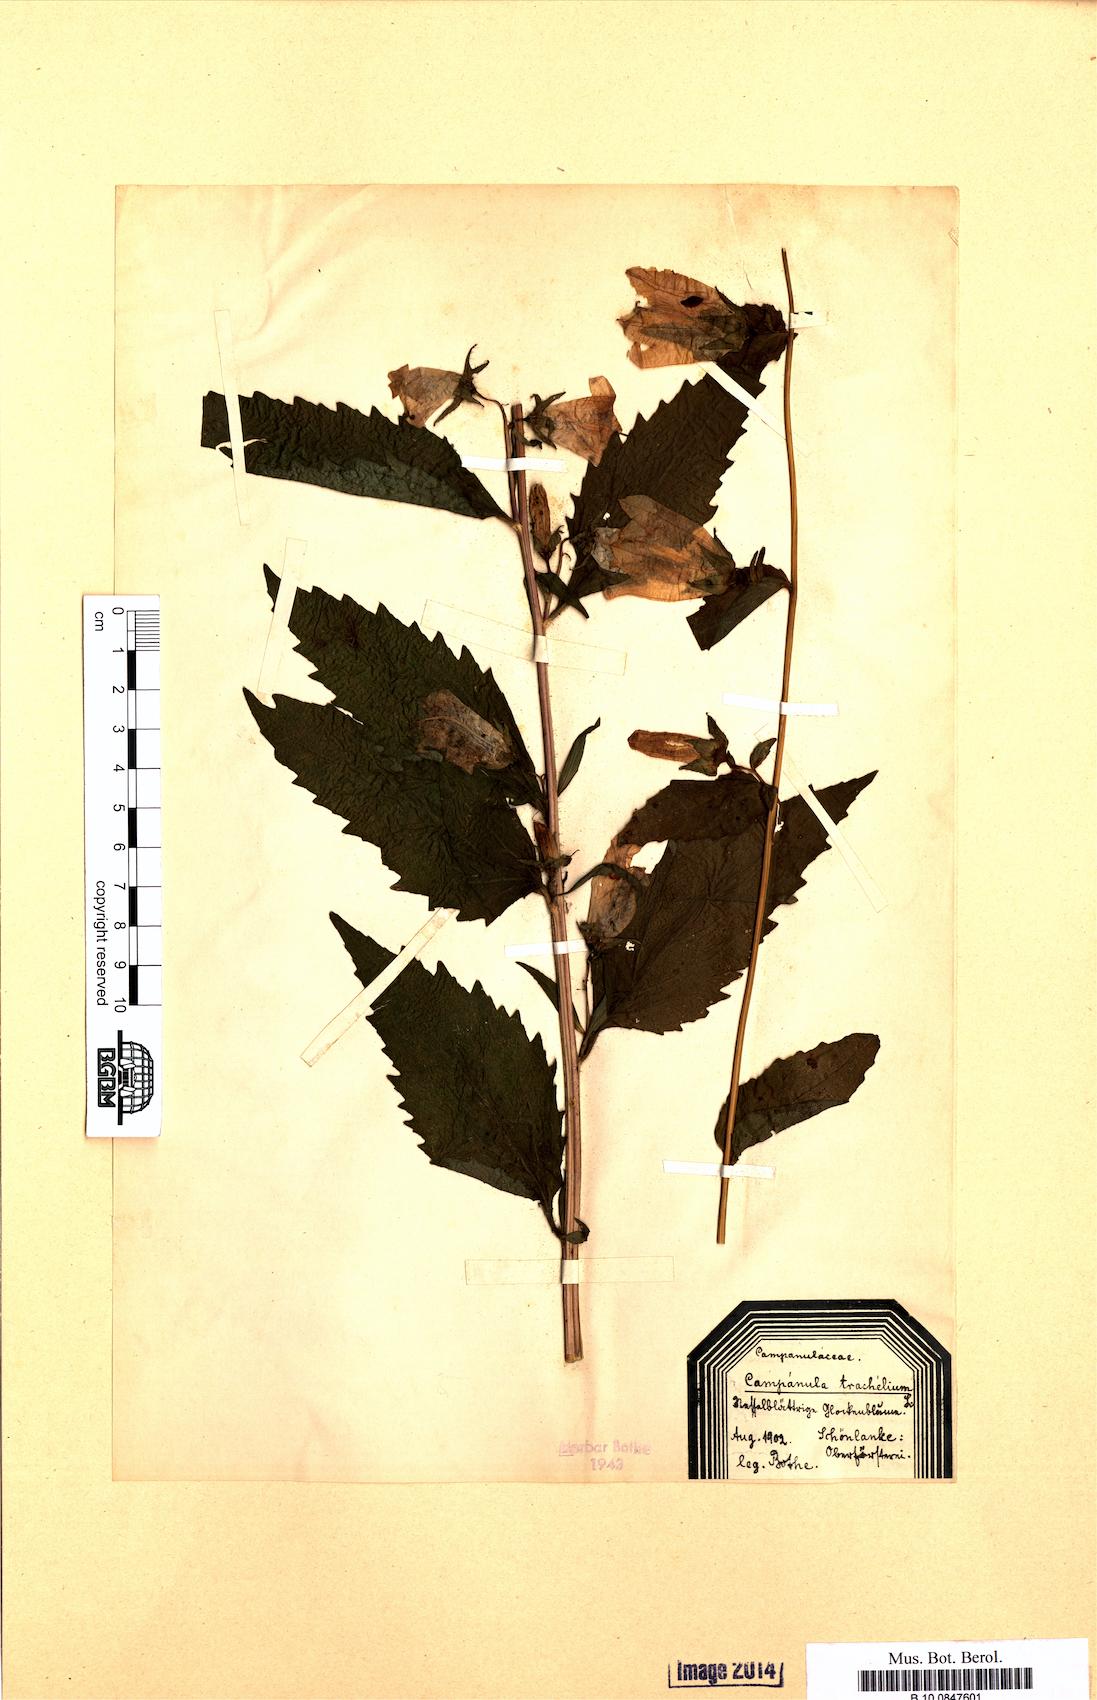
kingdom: Plantae
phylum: Tracheophyta
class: Magnoliopsida
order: Asterales
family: Campanulaceae
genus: Campanula
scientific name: Campanula trachelium
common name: Nettle-leaved bellflower
